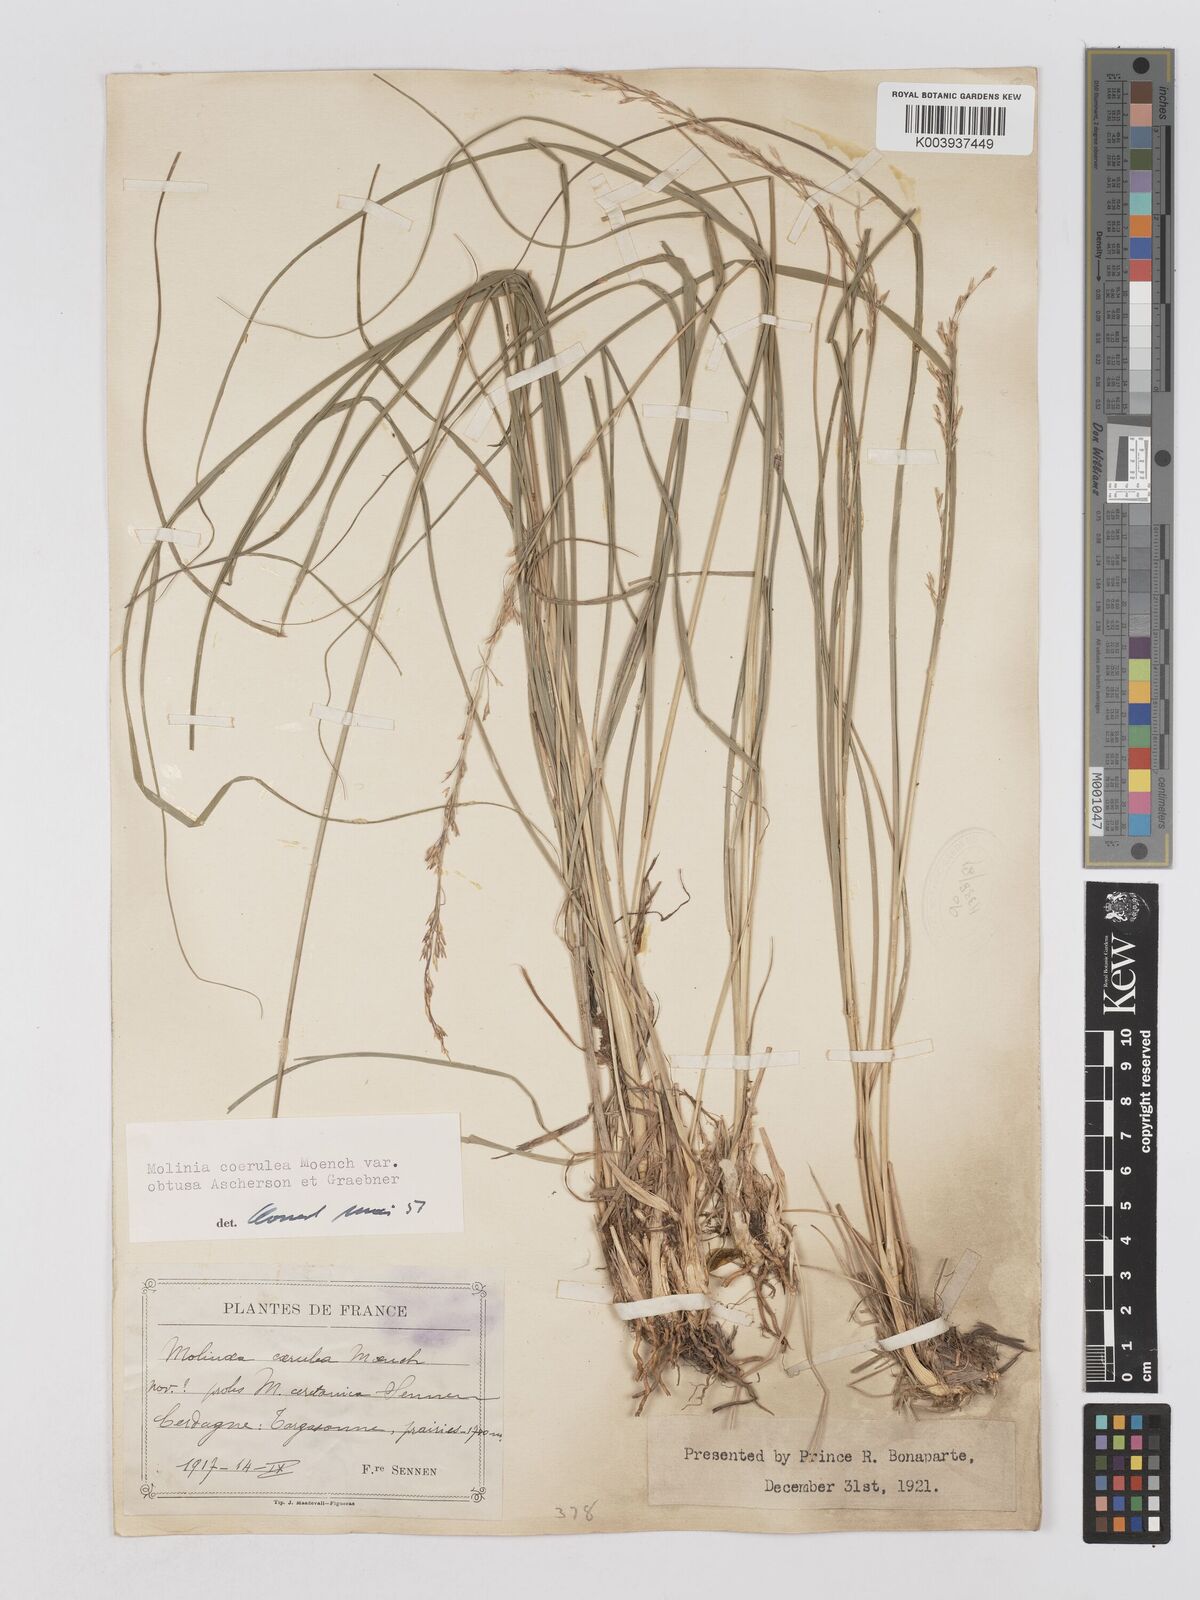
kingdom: Plantae
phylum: Tracheophyta
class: Liliopsida
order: Poales
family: Poaceae
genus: Molinia
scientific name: Molinia caerulea
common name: Purple moor-grass
